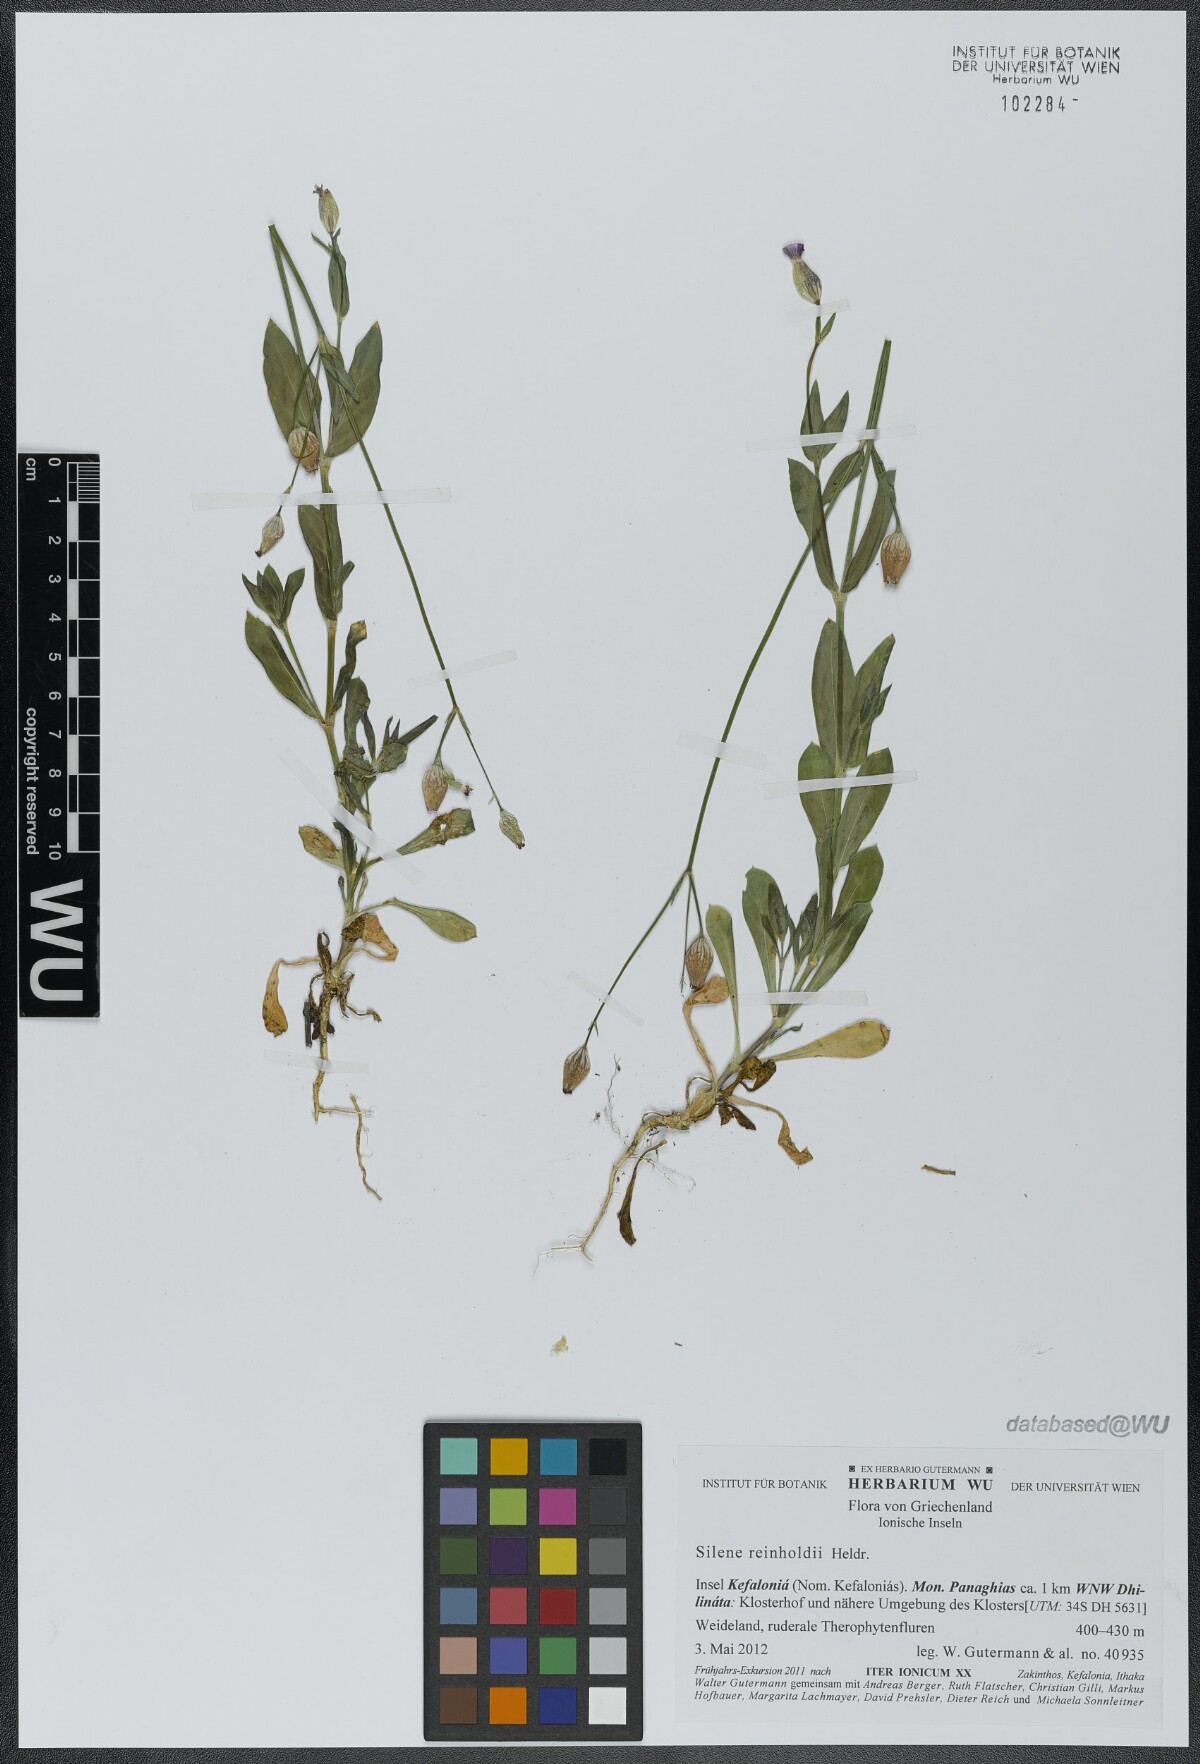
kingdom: Plantae
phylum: Tracheophyta
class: Magnoliopsida
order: Caryophyllales
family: Caryophyllaceae
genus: Silene
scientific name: Silene reinholdii
